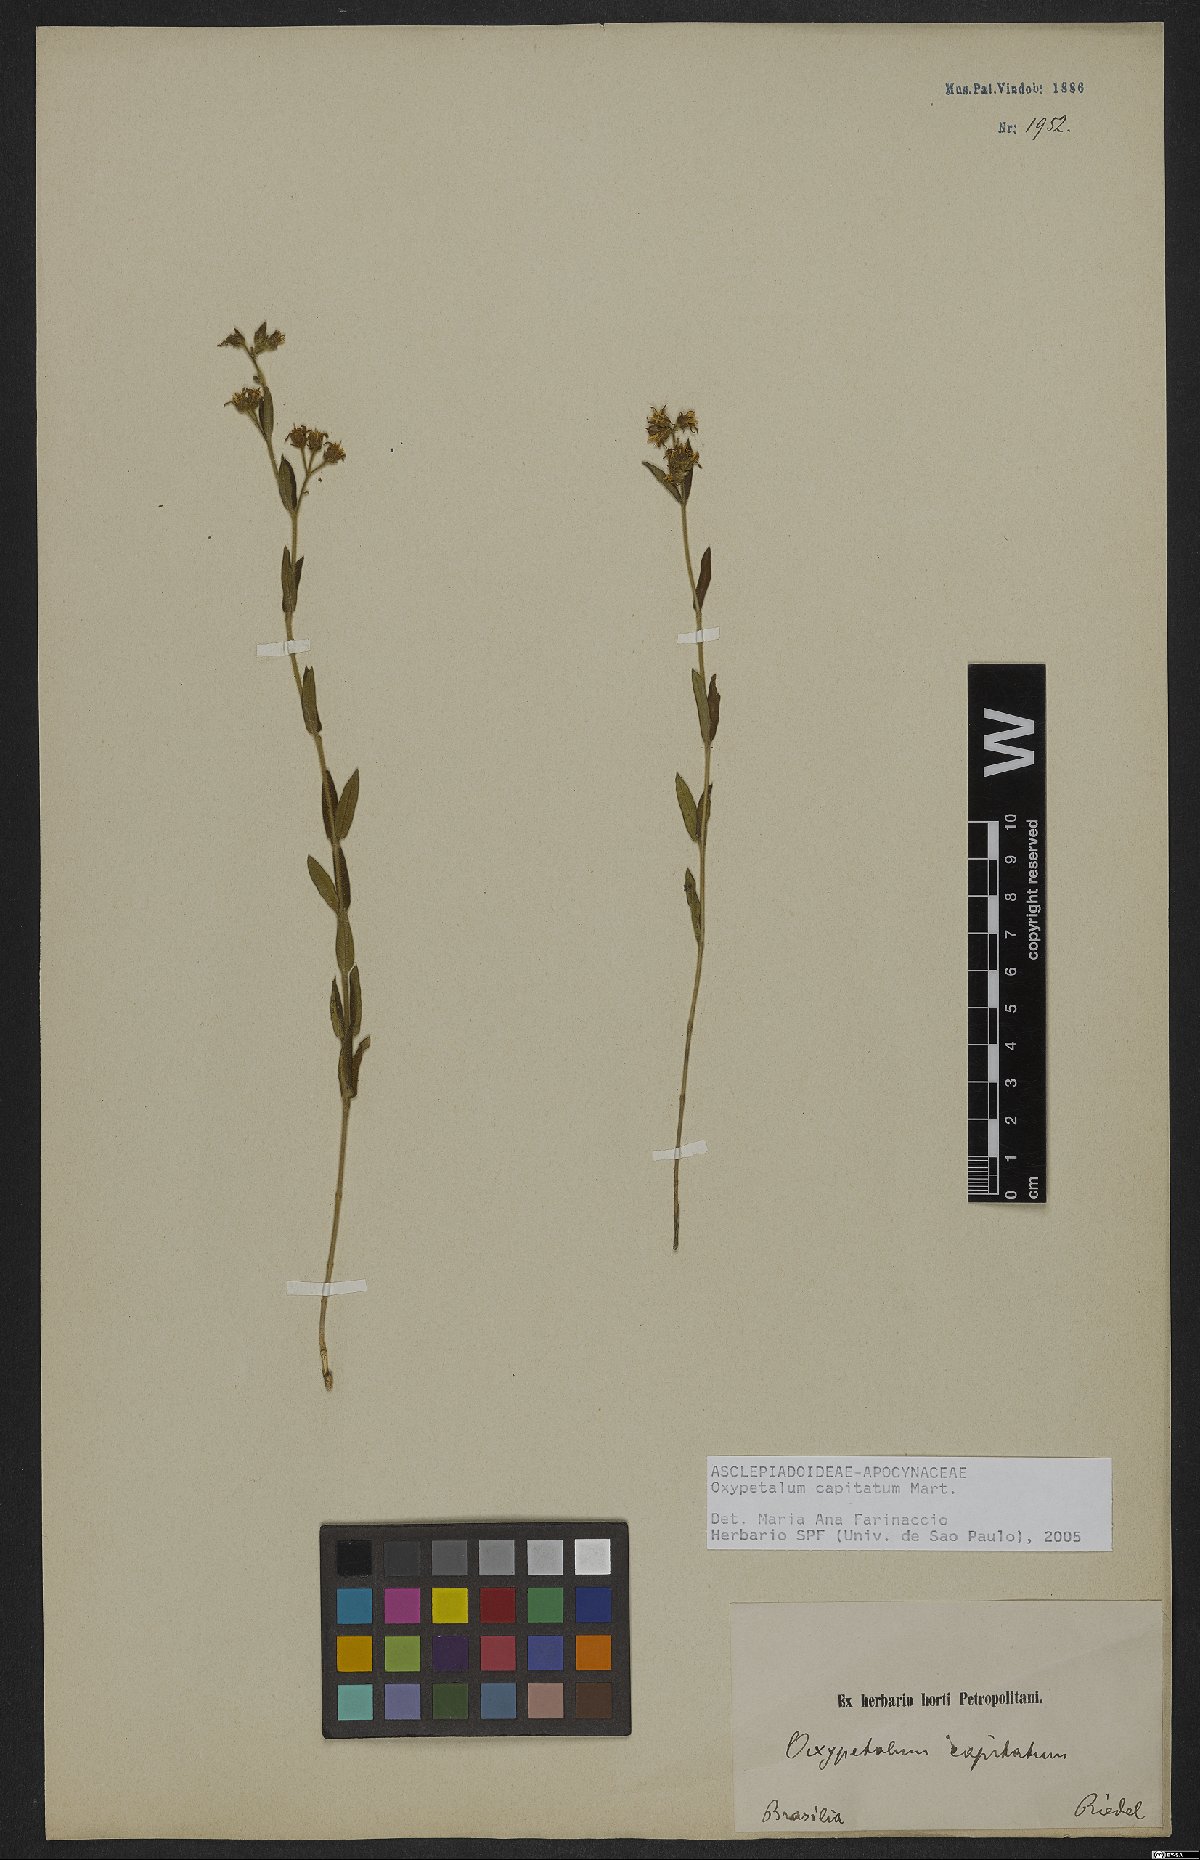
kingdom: Plantae
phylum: Tracheophyta
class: Magnoliopsida
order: Gentianales
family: Apocynaceae
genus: Oxypetalum
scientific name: Oxypetalum capitatum
